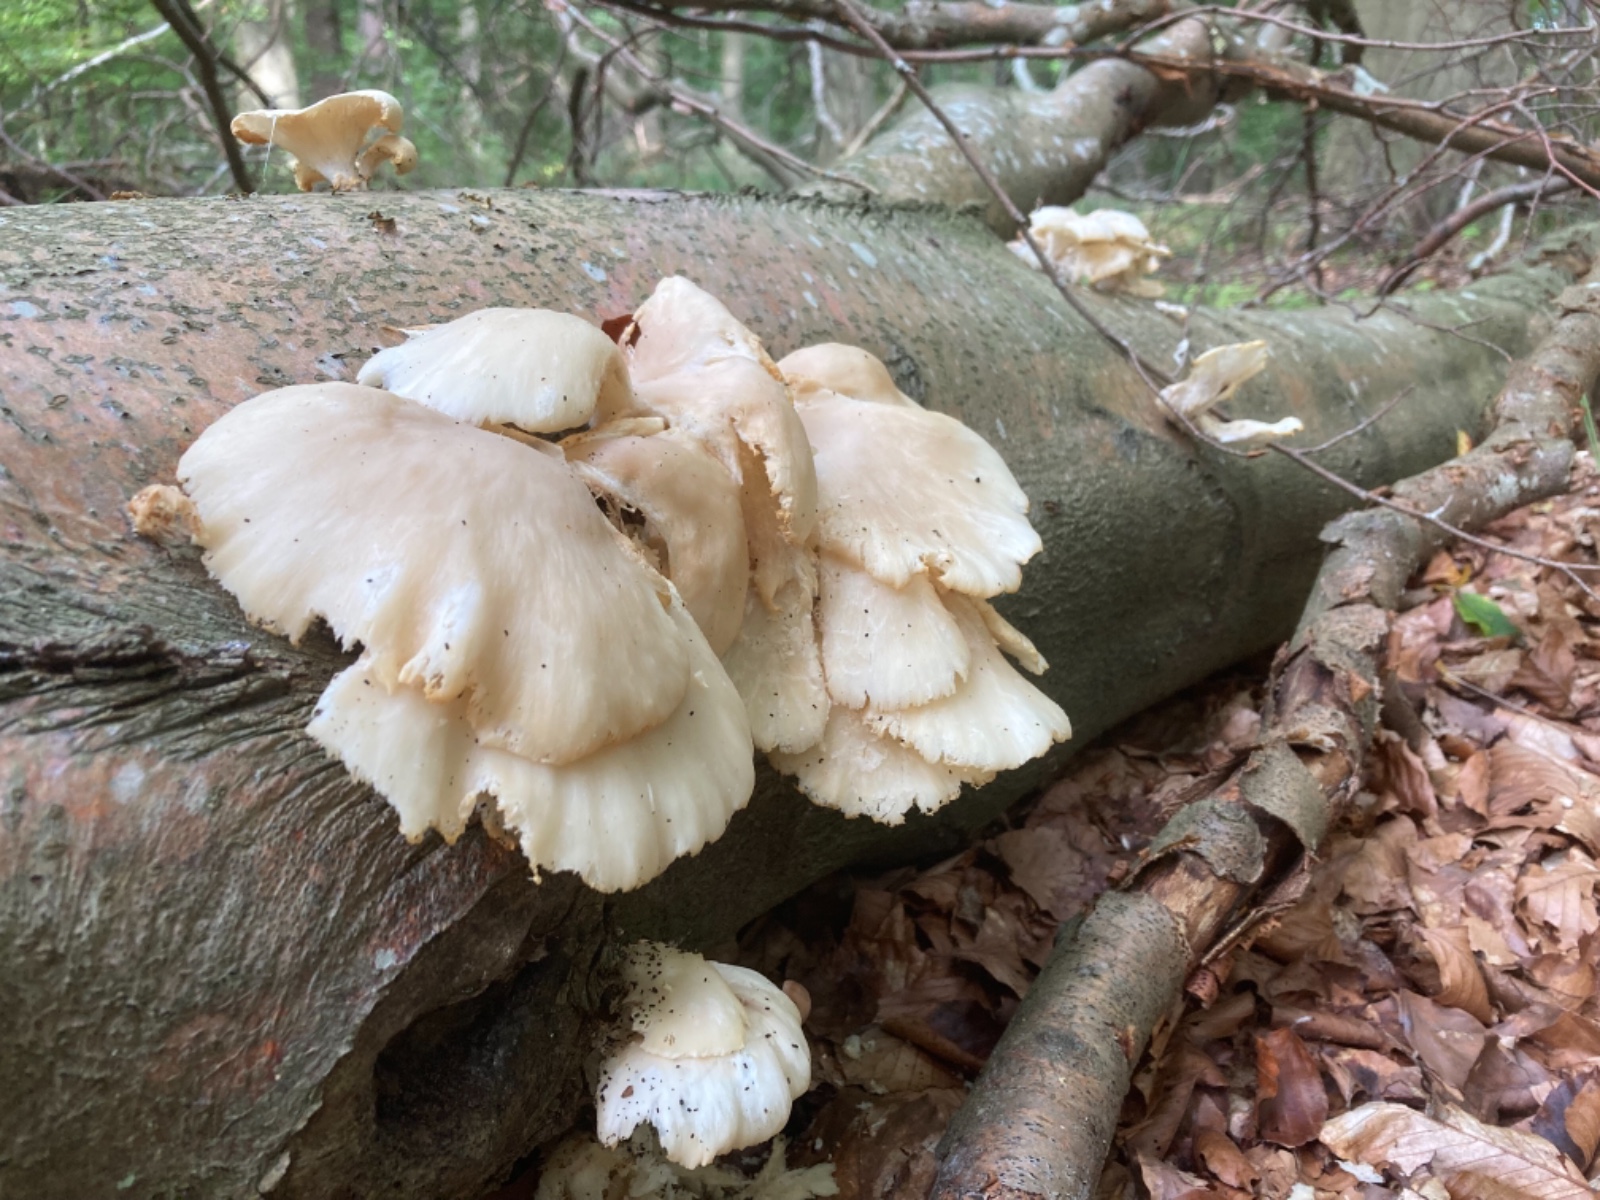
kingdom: Fungi
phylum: Basidiomycota
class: Agaricomycetes
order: Agaricales
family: Pleurotaceae
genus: Pleurotus
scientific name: Pleurotus pulmonarius
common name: sommer-østershat
